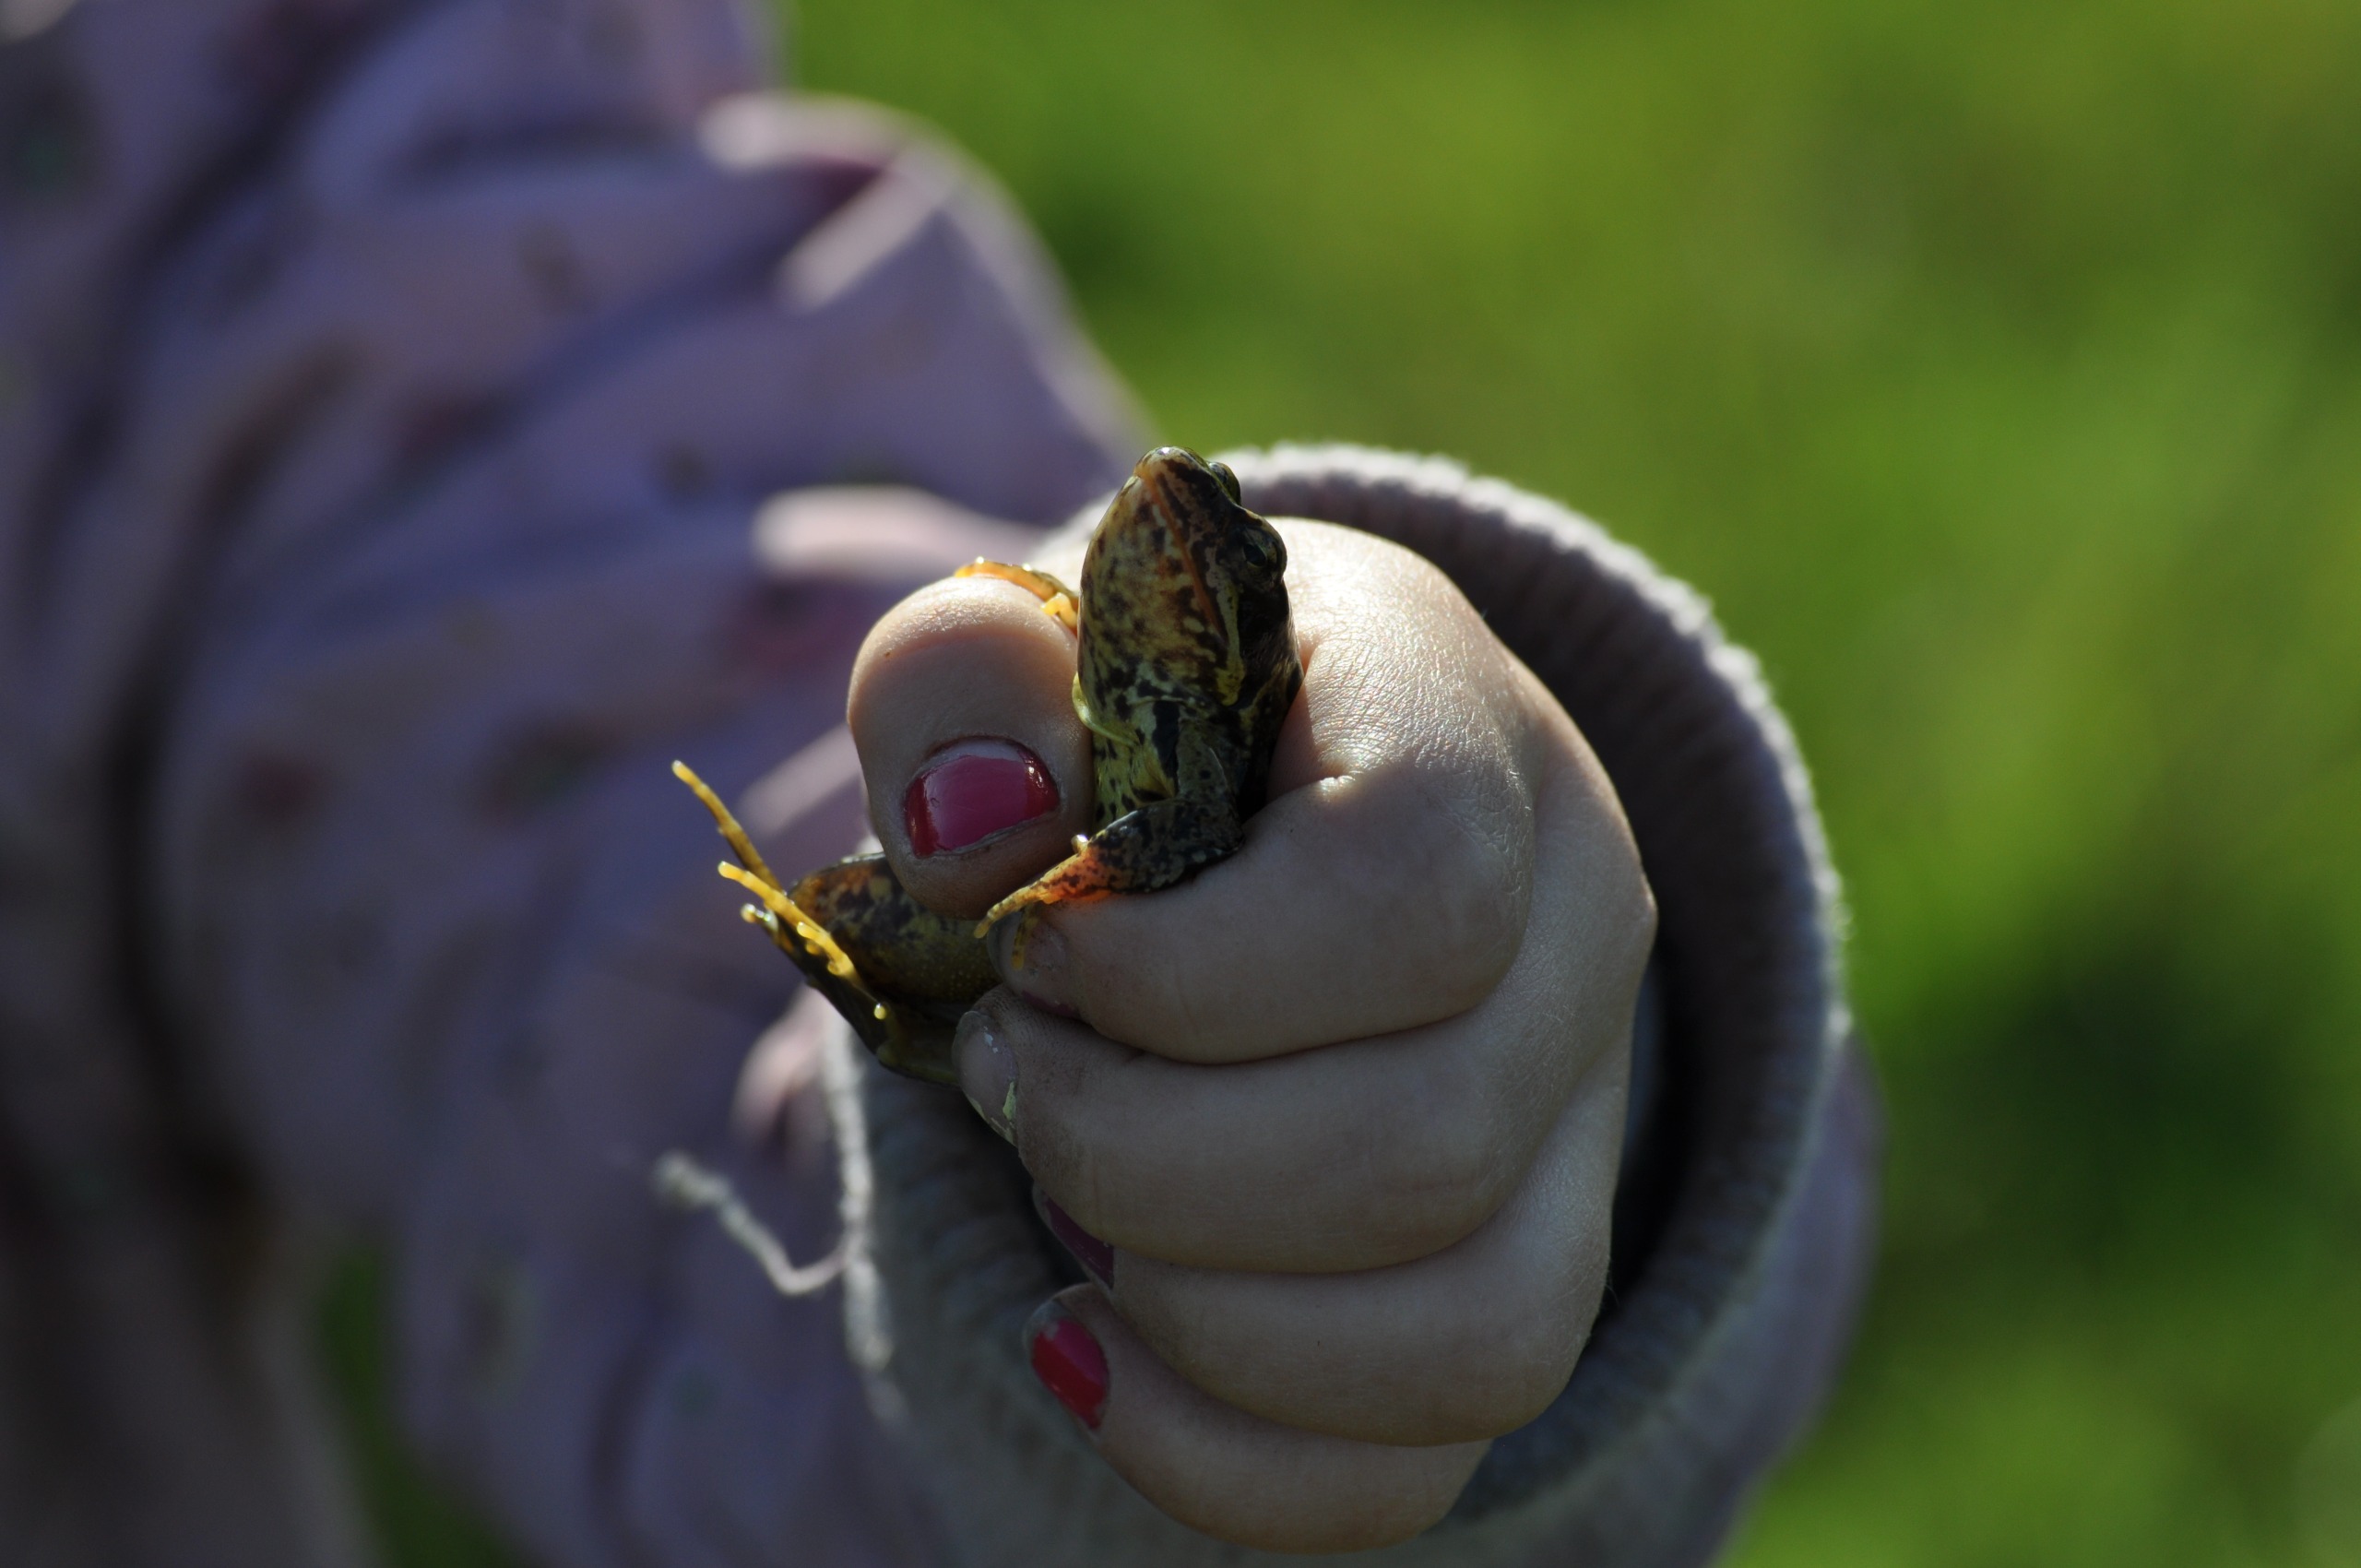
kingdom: Animalia
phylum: Chordata
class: Amphibia
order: Anura
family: Ranidae
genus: Rana
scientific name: Rana temporaria
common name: Butsnudet frø
